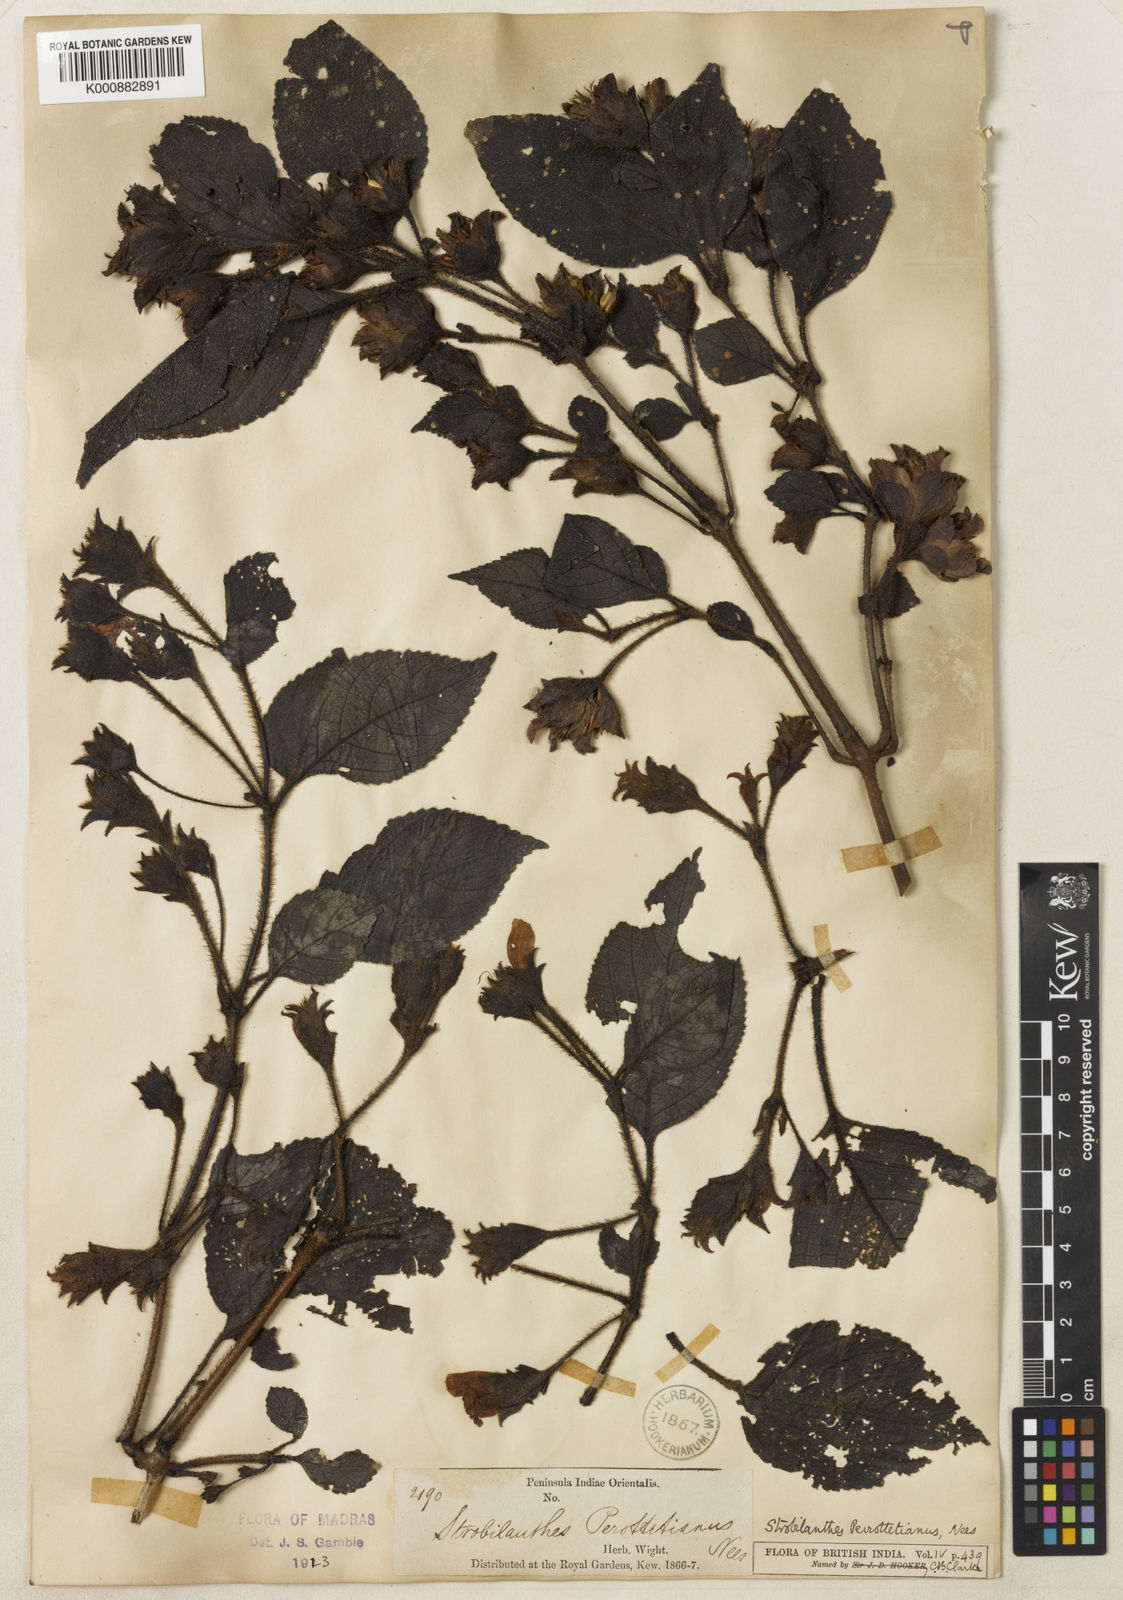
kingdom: Plantae
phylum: Tracheophyta
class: Magnoliopsida
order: Lamiales
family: Acanthaceae
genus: Strobilanthes
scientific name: Strobilanthes perrottetiana
